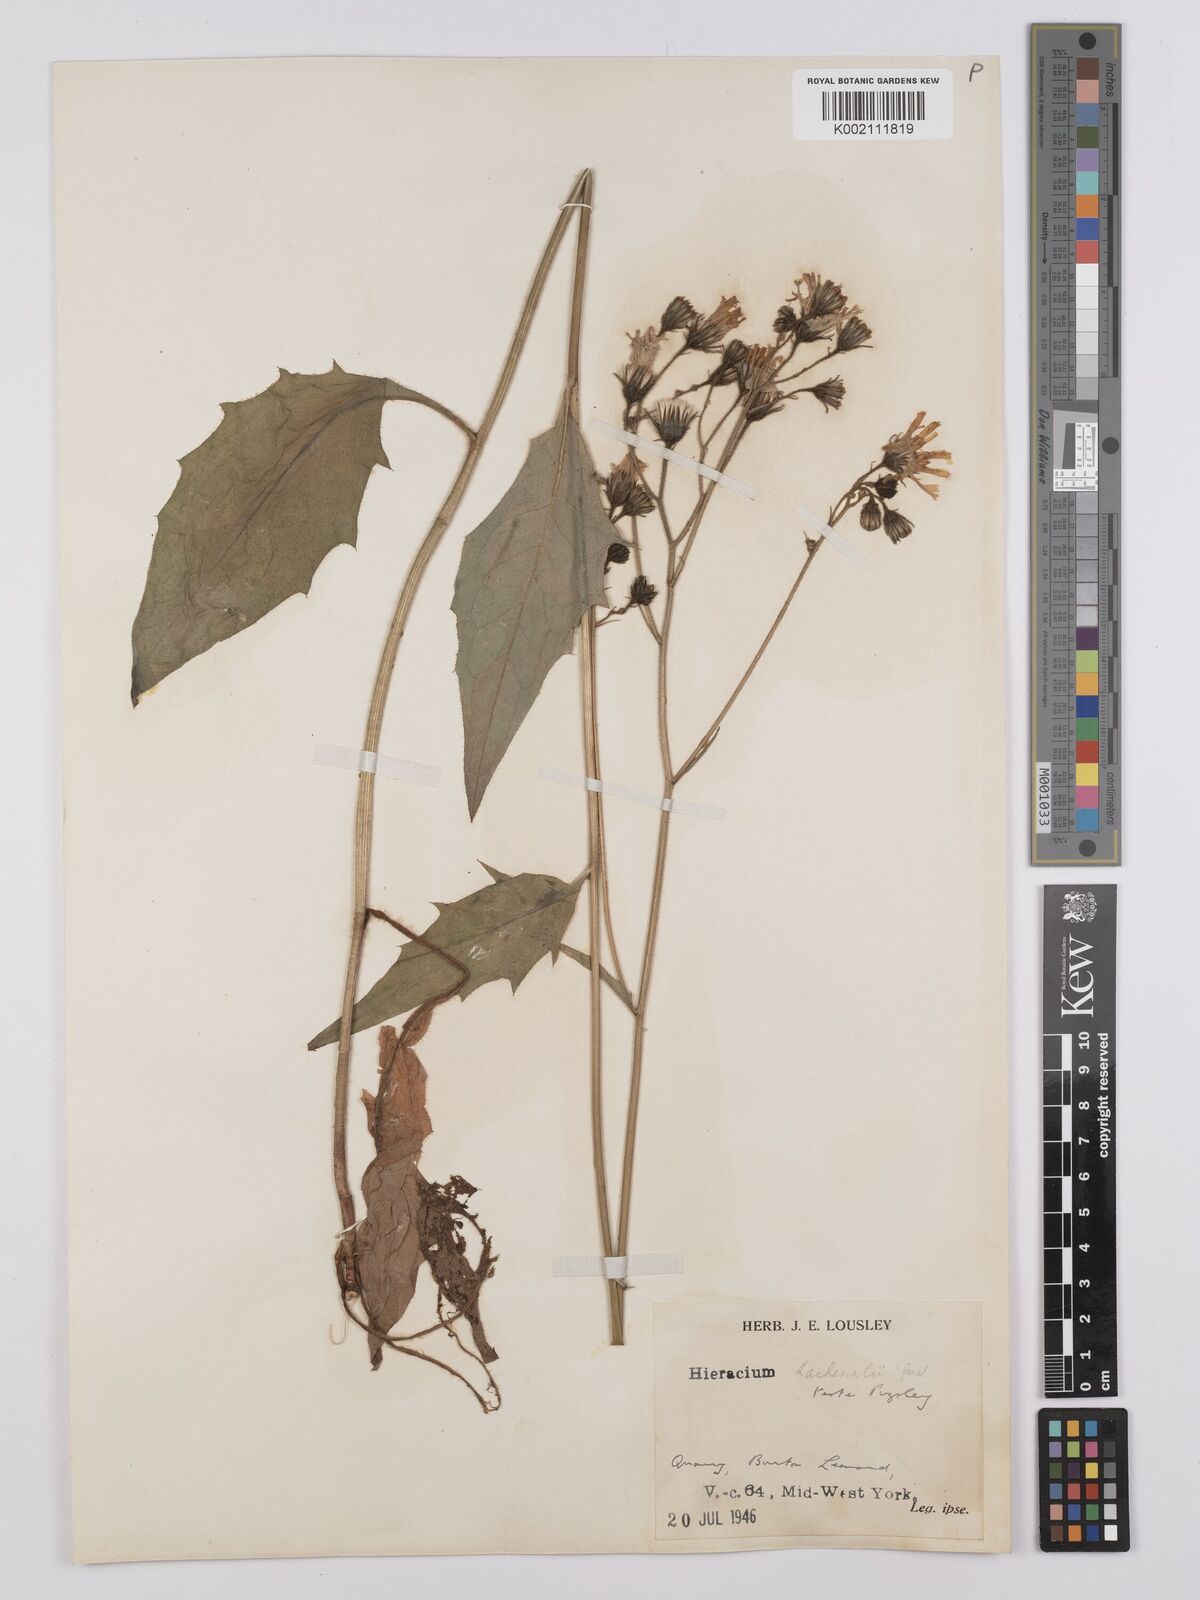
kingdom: Plantae
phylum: Tracheophyta
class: Magnoliopsida
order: Asterales
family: Asteraceae
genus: Hieracium
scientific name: Hieracium lachenalii
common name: Common hawkweed
